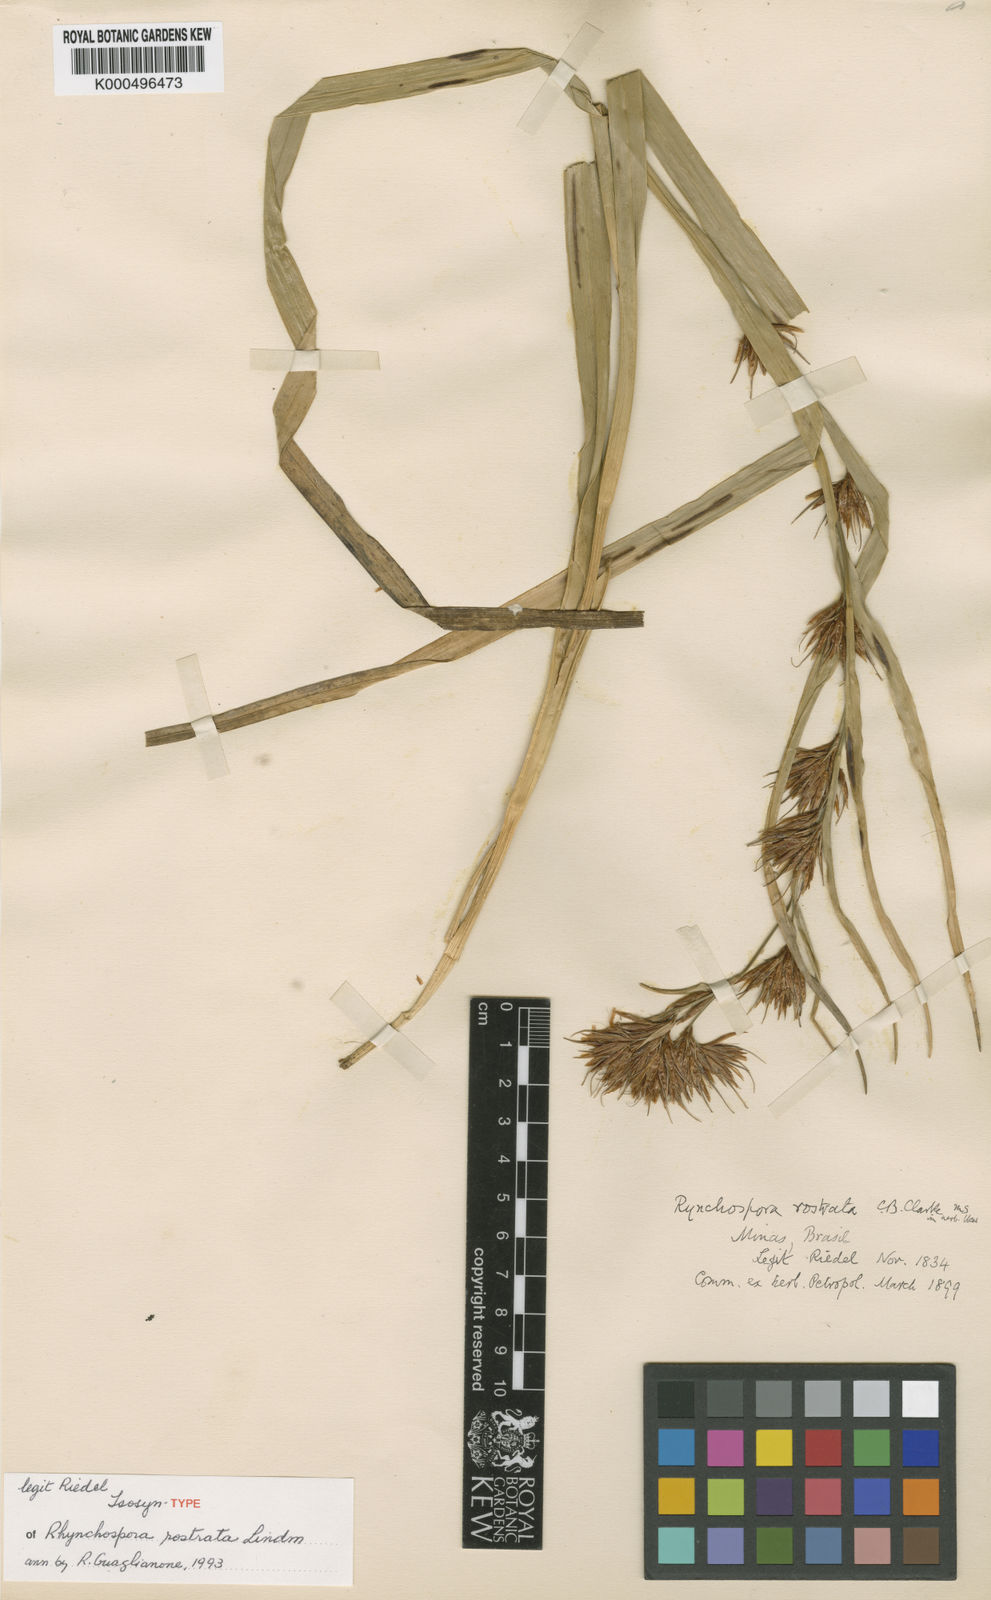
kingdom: Plantae
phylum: Tracheophyta
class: Liliopsida
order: Poales
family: Cyperaceae
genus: Rhynchospora
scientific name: Rhynchospora rostrata
